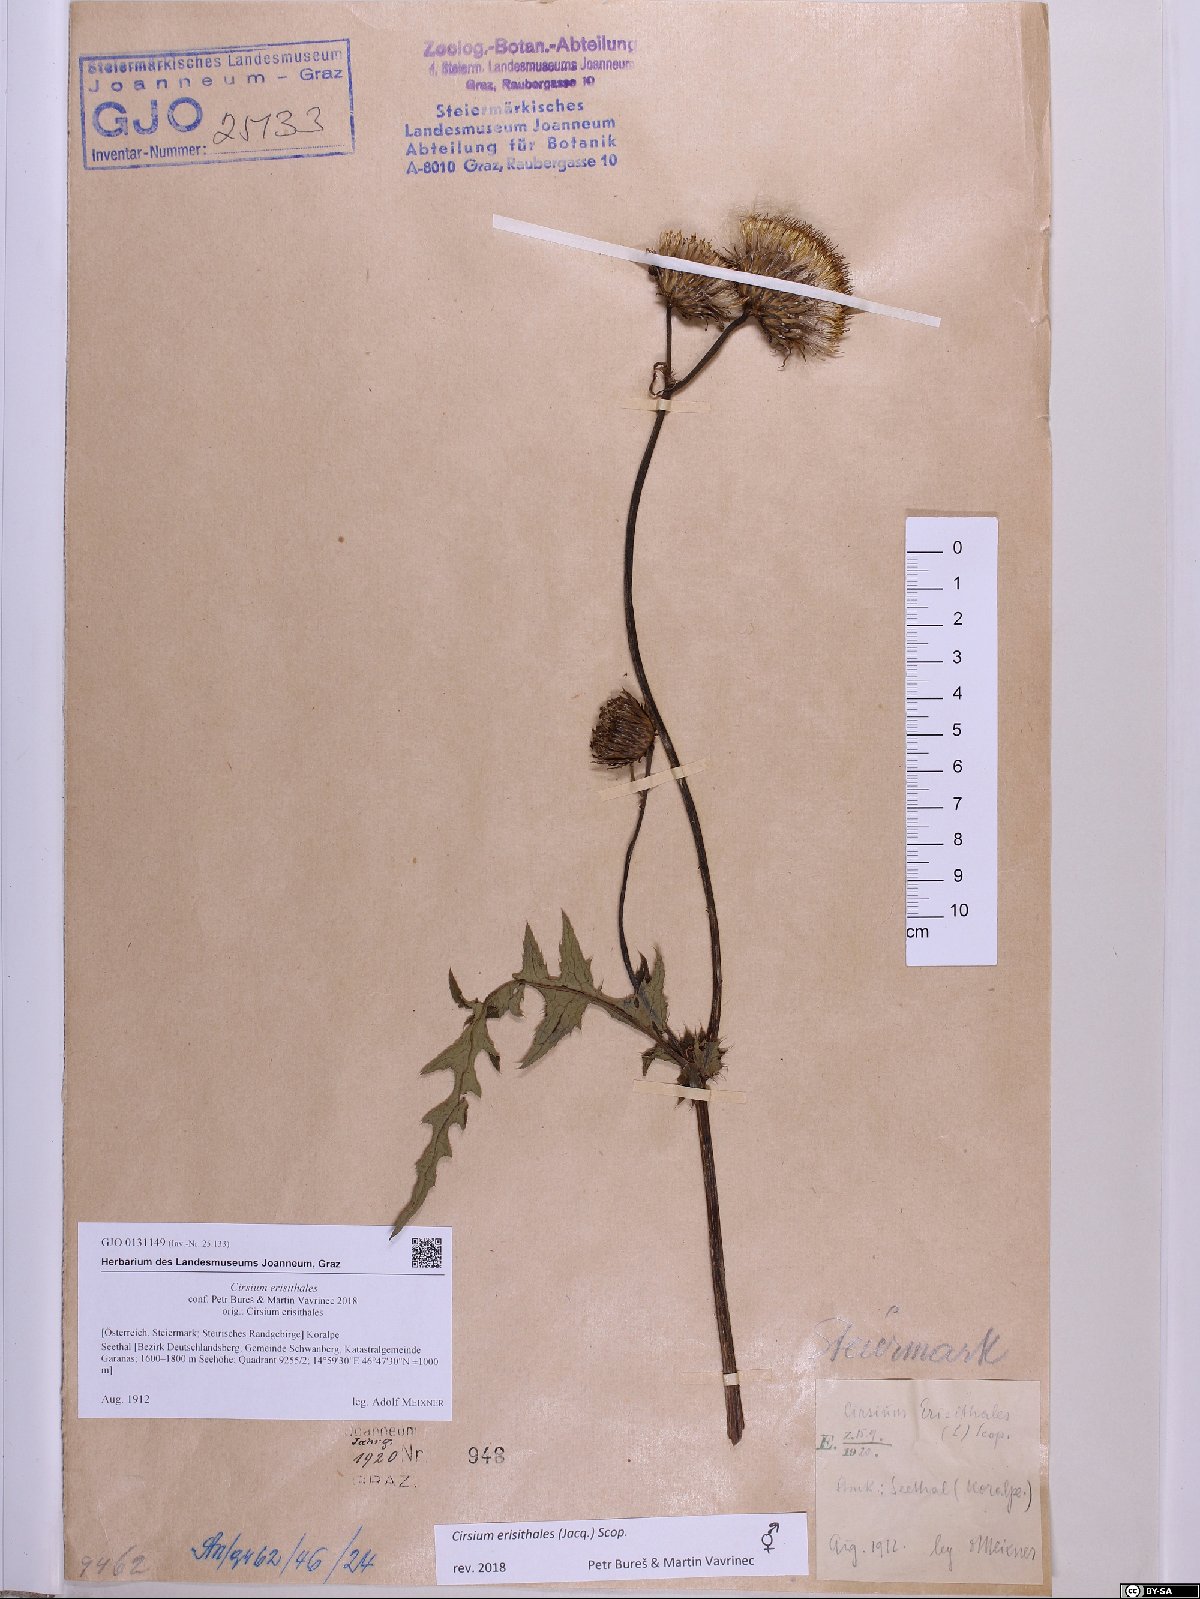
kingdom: Plantae
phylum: Tracheophyta
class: Magnoliopsida
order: Asterales
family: Asteraceae
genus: Cirsium
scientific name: Cirsium erisithales
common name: Yellow thistle
